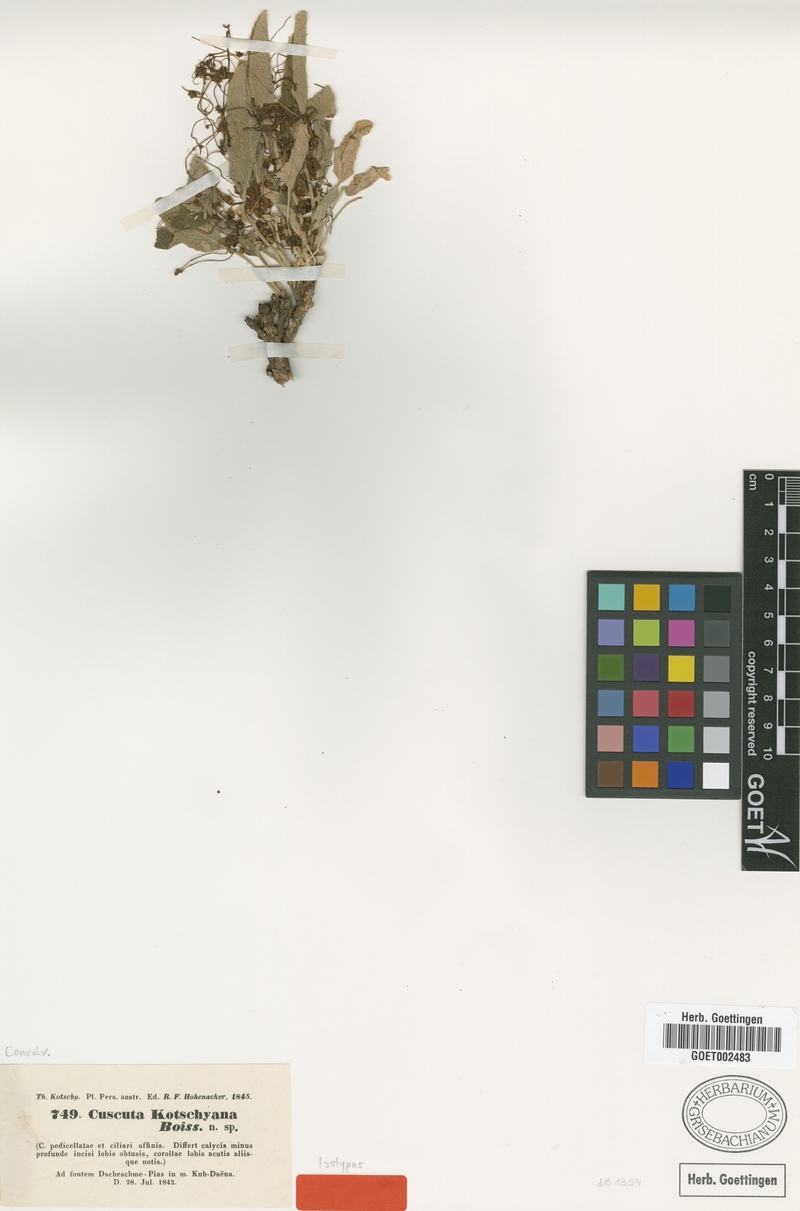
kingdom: Plantae
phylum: Tracheophyta
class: Magnoliopsida
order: Solanales
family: Convolvulaceae
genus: Cuscuta
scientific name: Cuscuta kotschyana
